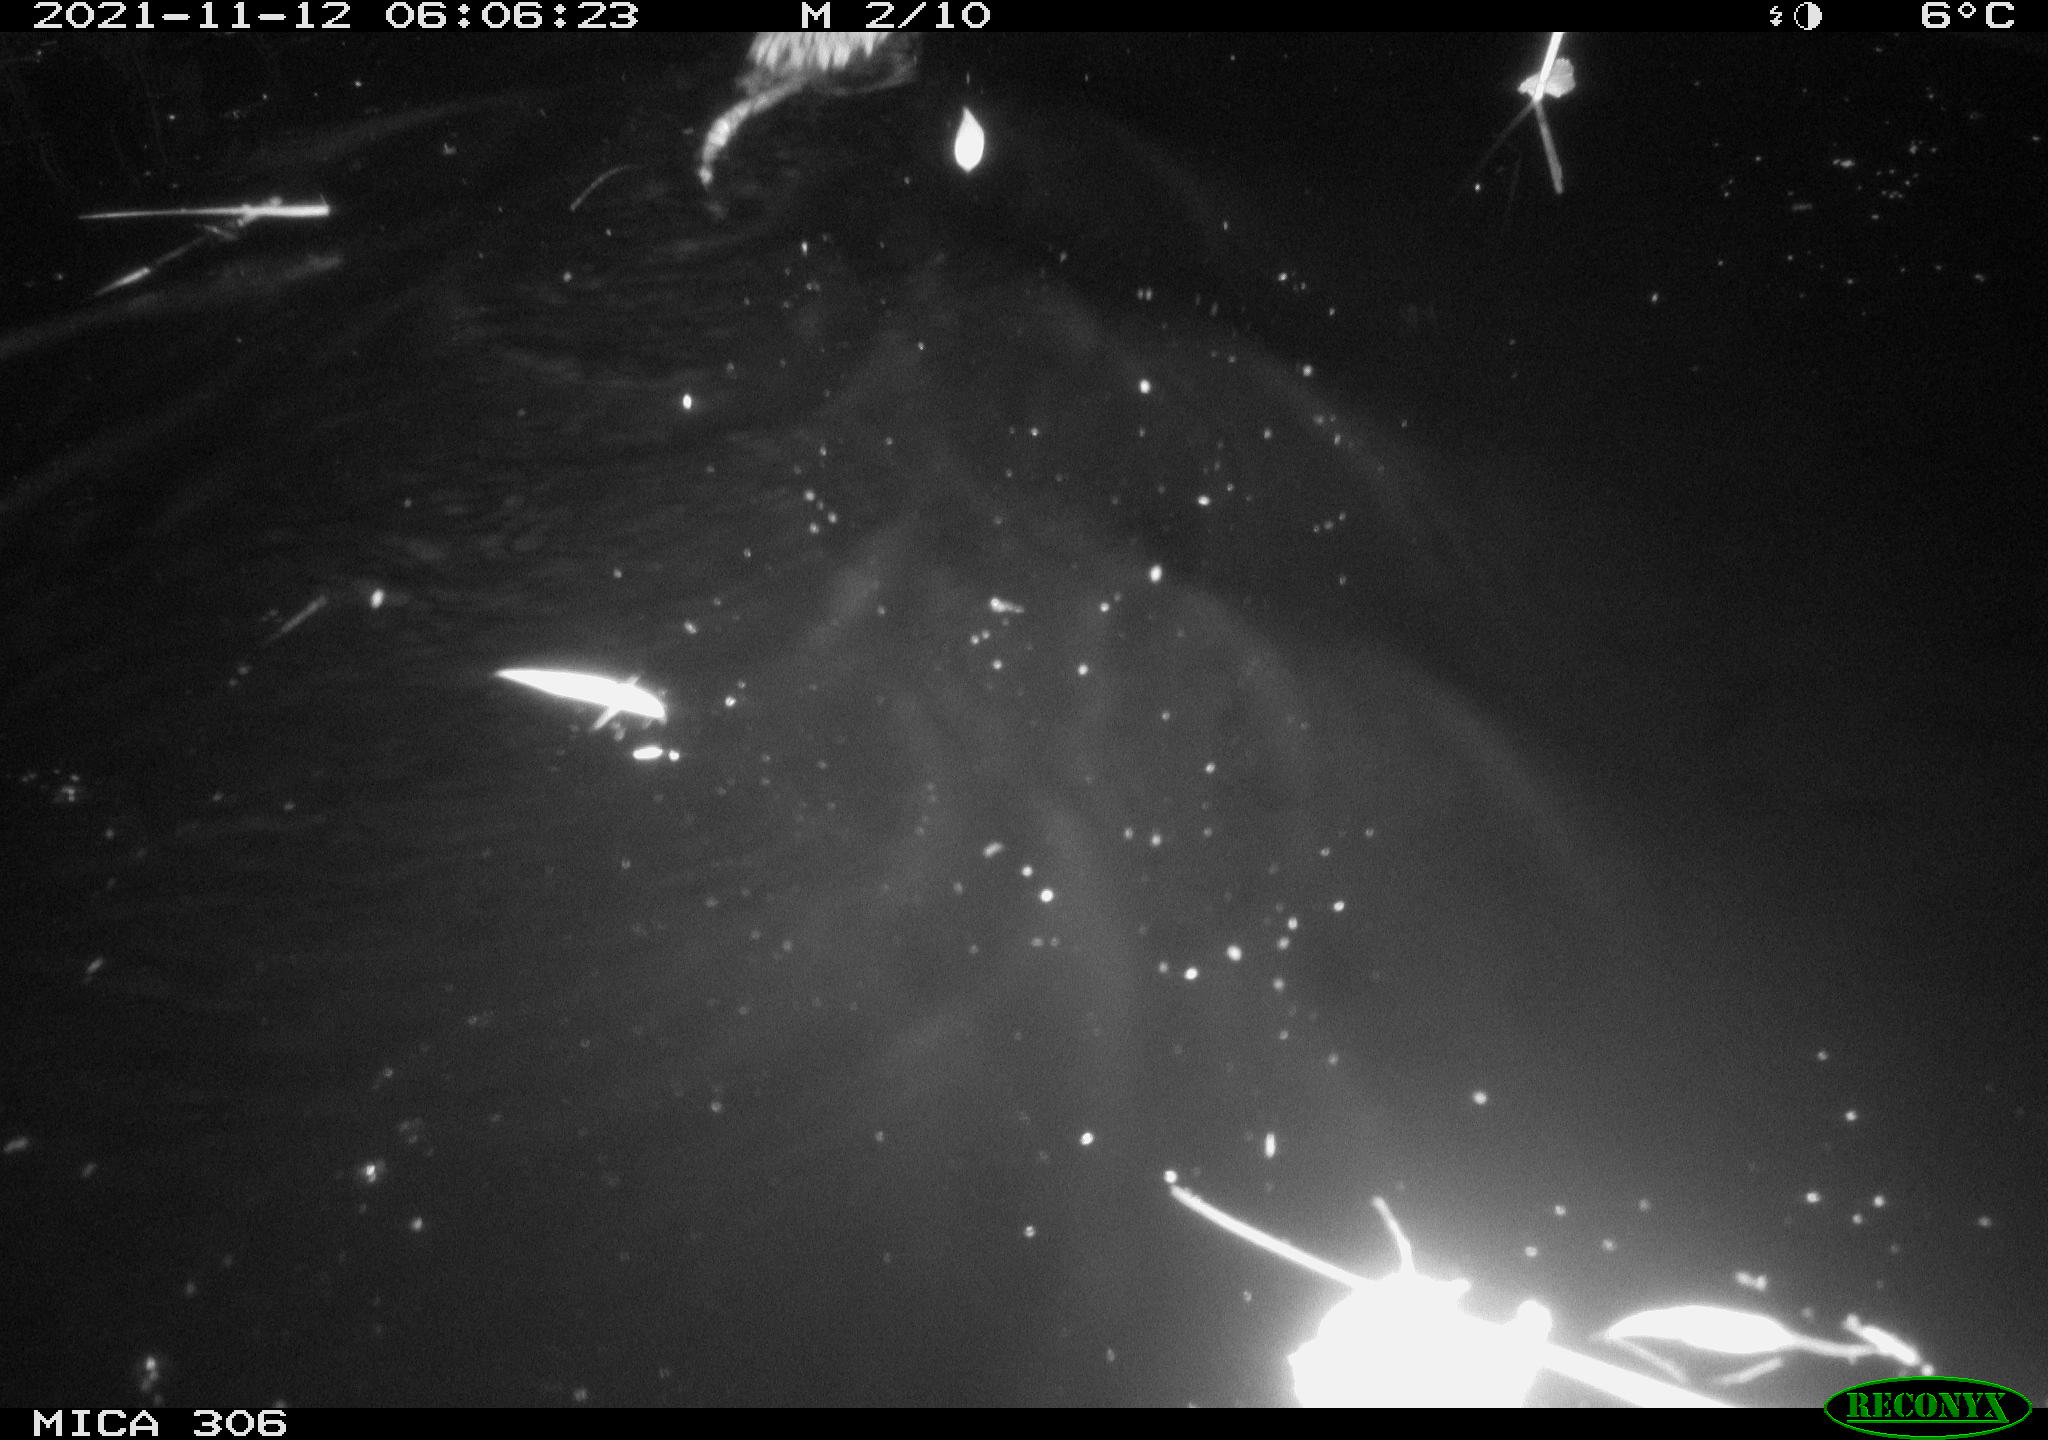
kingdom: Animalia
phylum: Chordata
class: Mammalia
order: Rodentia
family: Cricetidae
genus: Ondatra
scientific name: Ondatra zibethicus
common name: Muskrat
